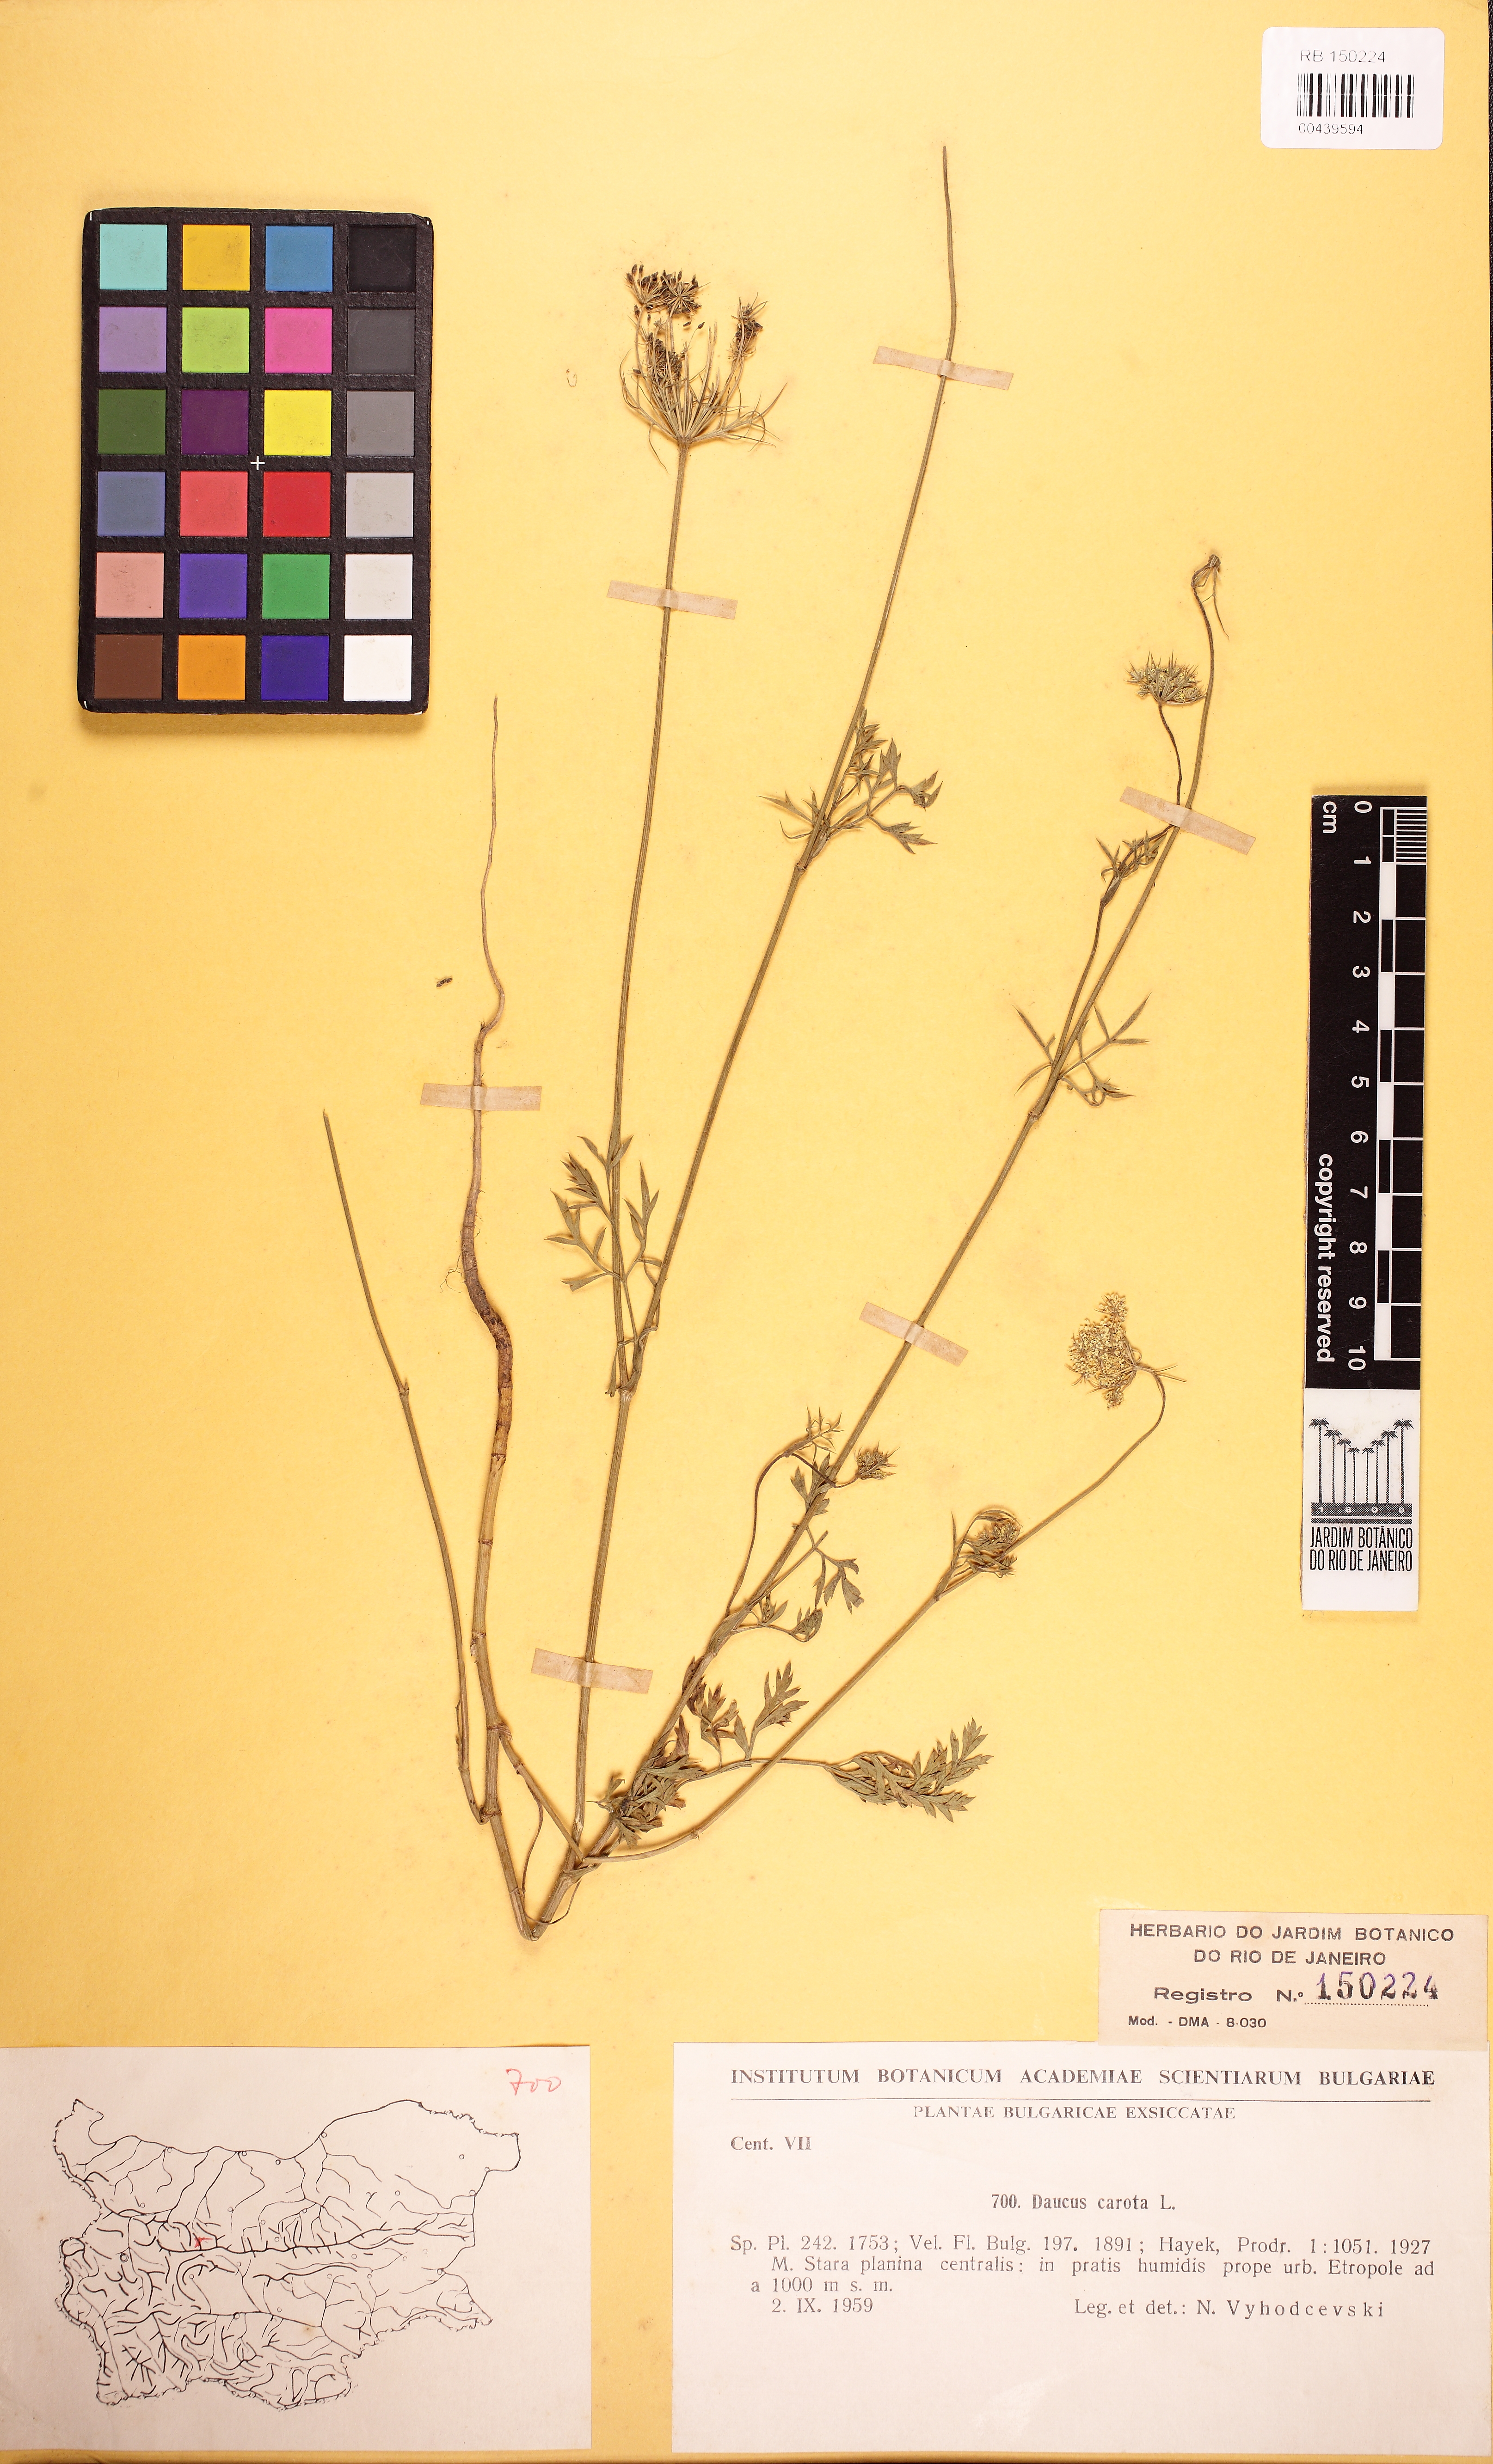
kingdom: Plantae
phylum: Tracheophyta
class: Magnoliopsida
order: Apiales
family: Apiaceae
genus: Daucus
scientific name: Daucus carota
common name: Wild carrot
